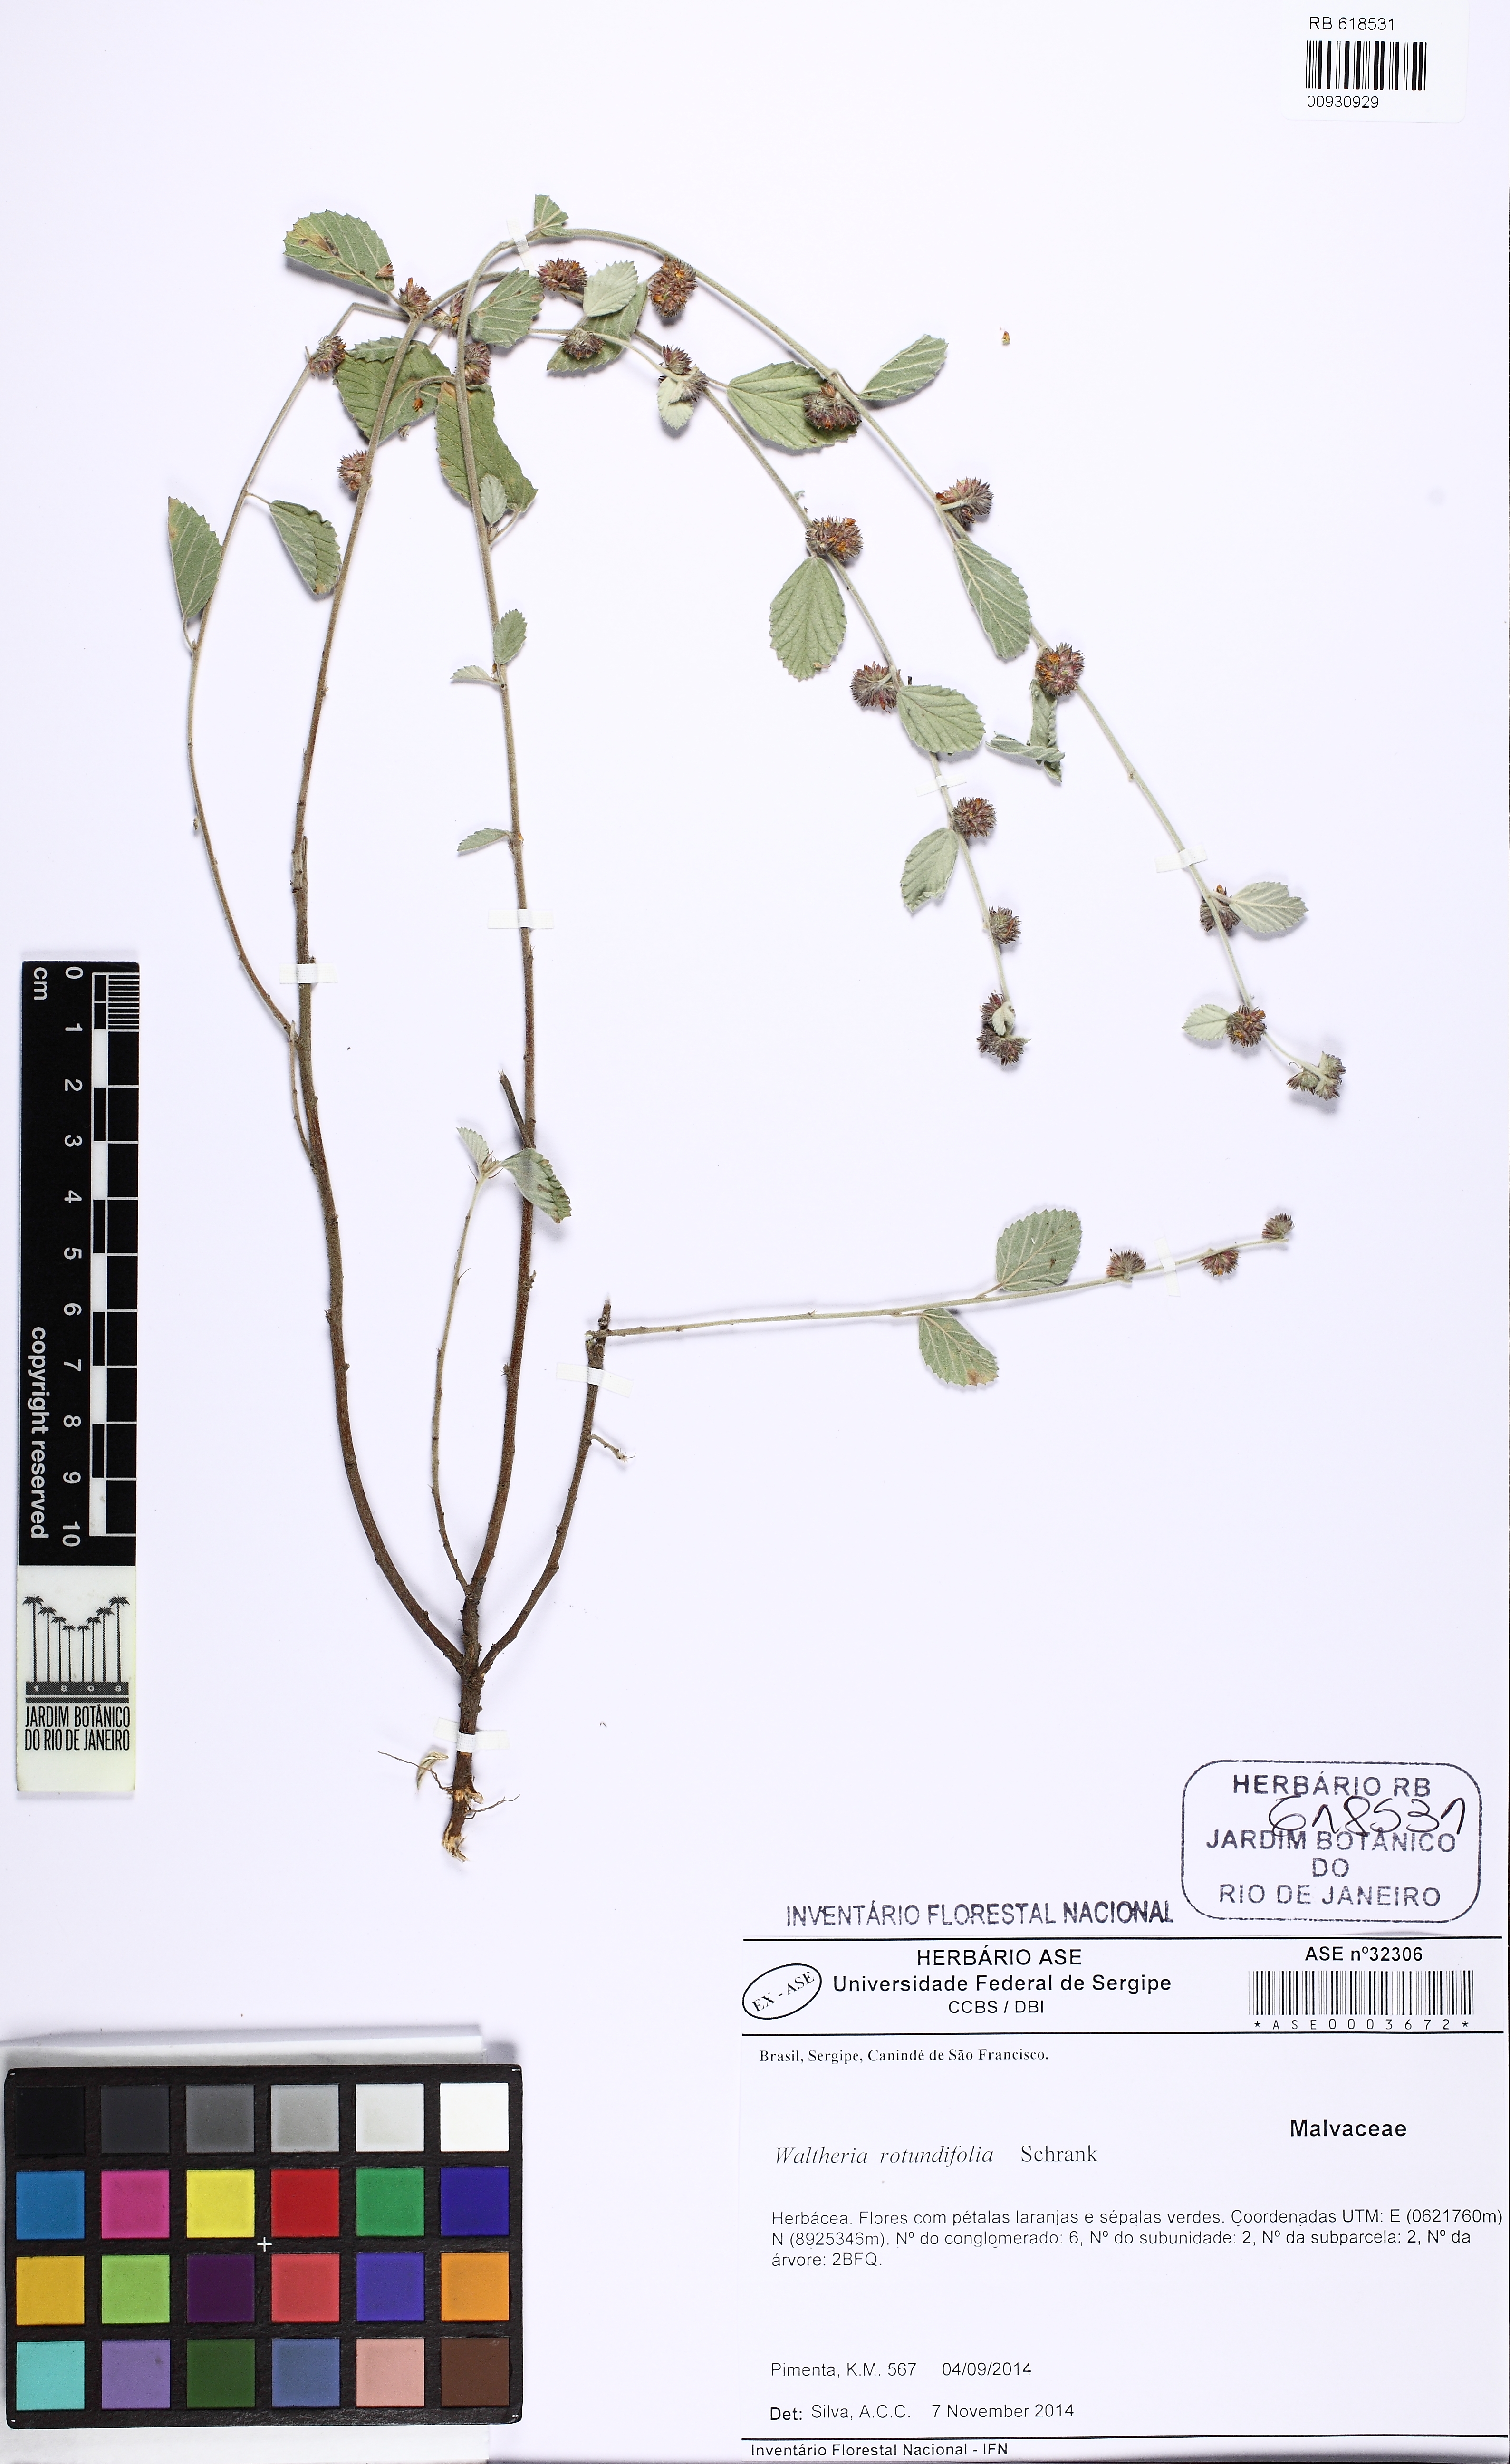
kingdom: Plantae
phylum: Tracheophyta
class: Magnoliopsida
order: Malvales
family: Malvaceae
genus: Waltheria
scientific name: Waltheria rotundifolia
